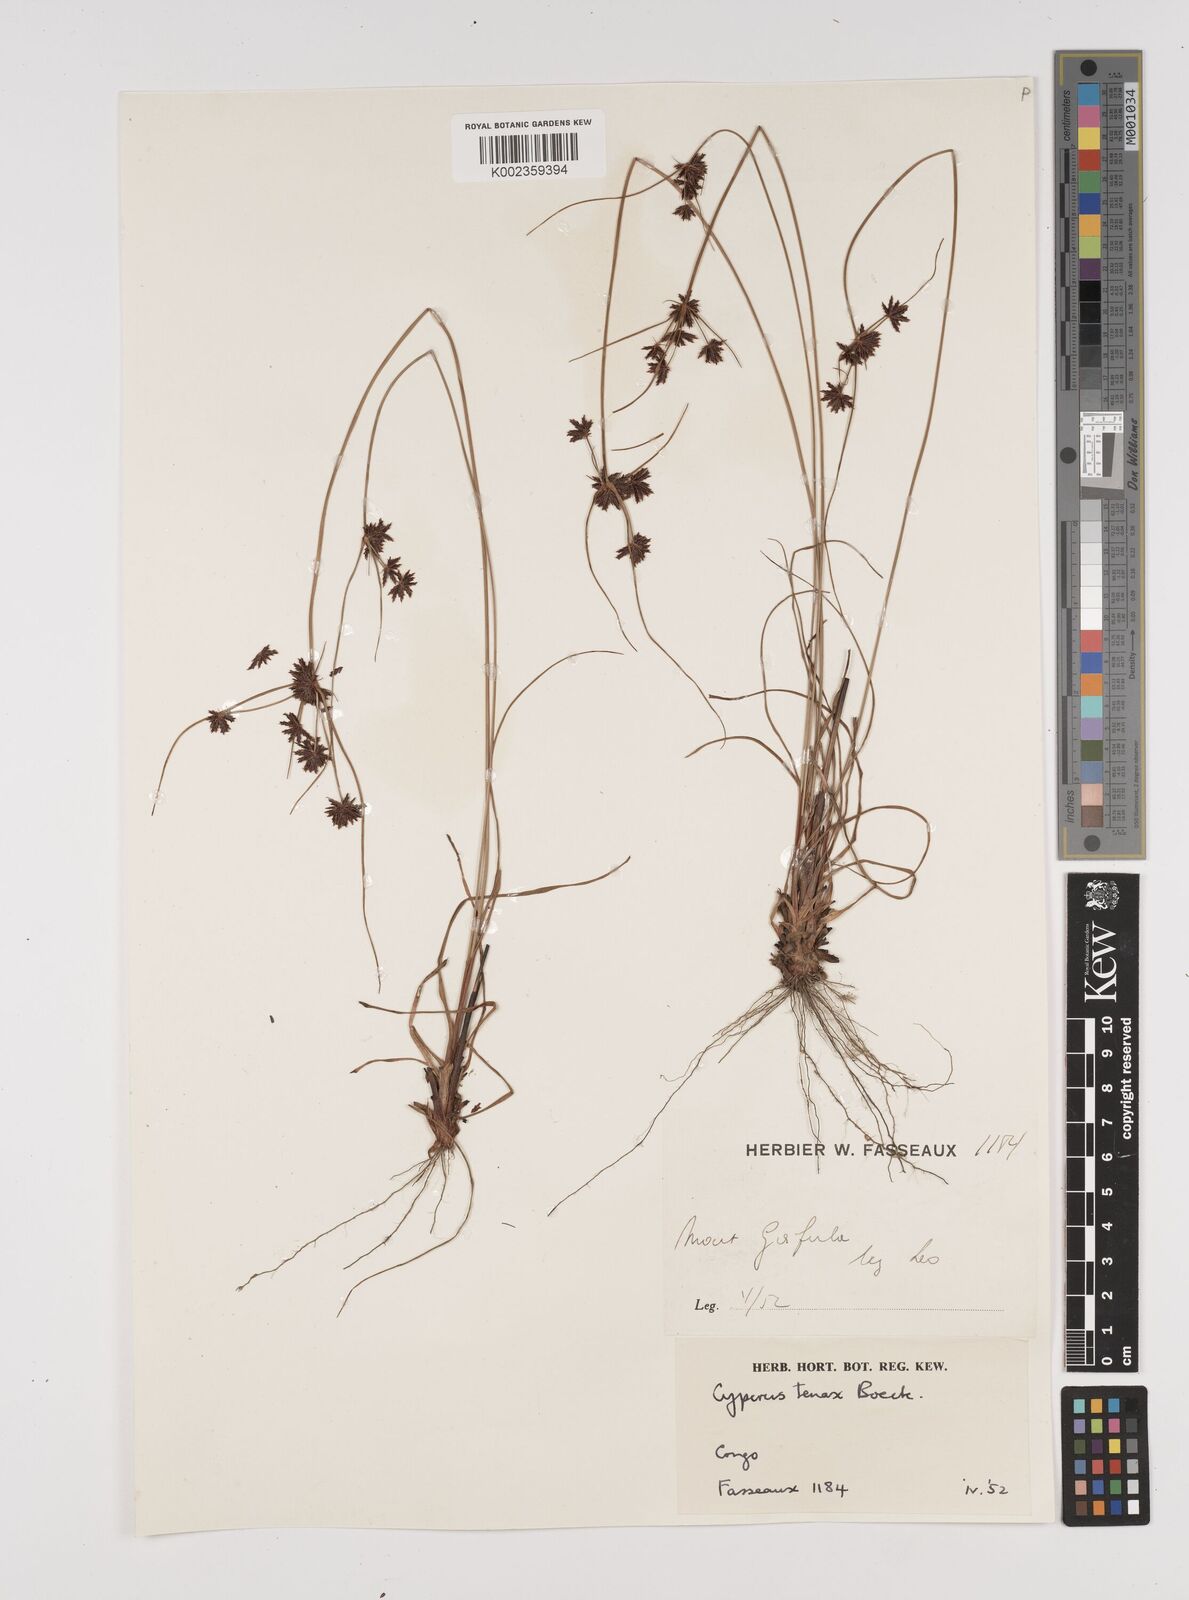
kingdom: Plantae
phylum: Tracheophyta
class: Liliopsida
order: Poales
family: Cyperaceae
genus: Cyperus
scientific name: Cyperus tenax
